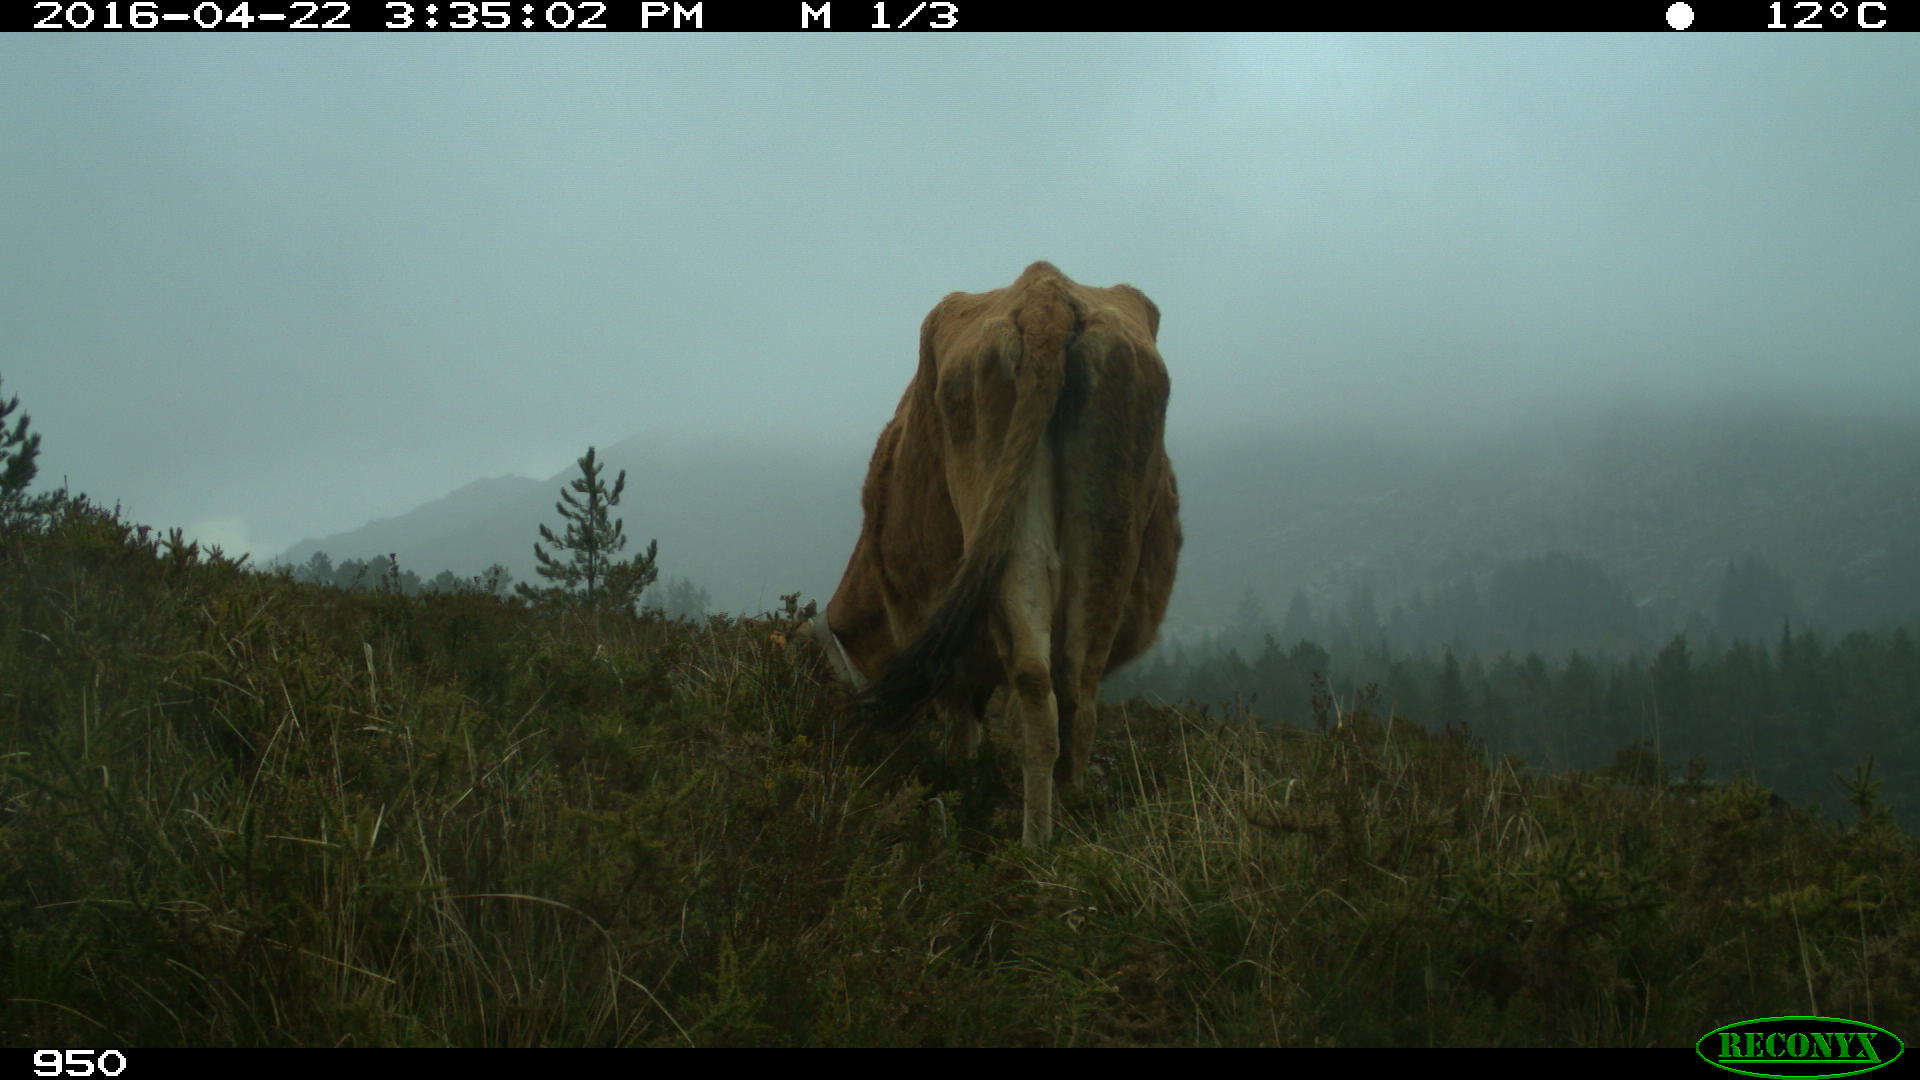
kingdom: Animalia
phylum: Chordata
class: Mammalia
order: Artiodactyla
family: Bovidae
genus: Bos
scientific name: Bos taurus
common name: Domesticated cattle
